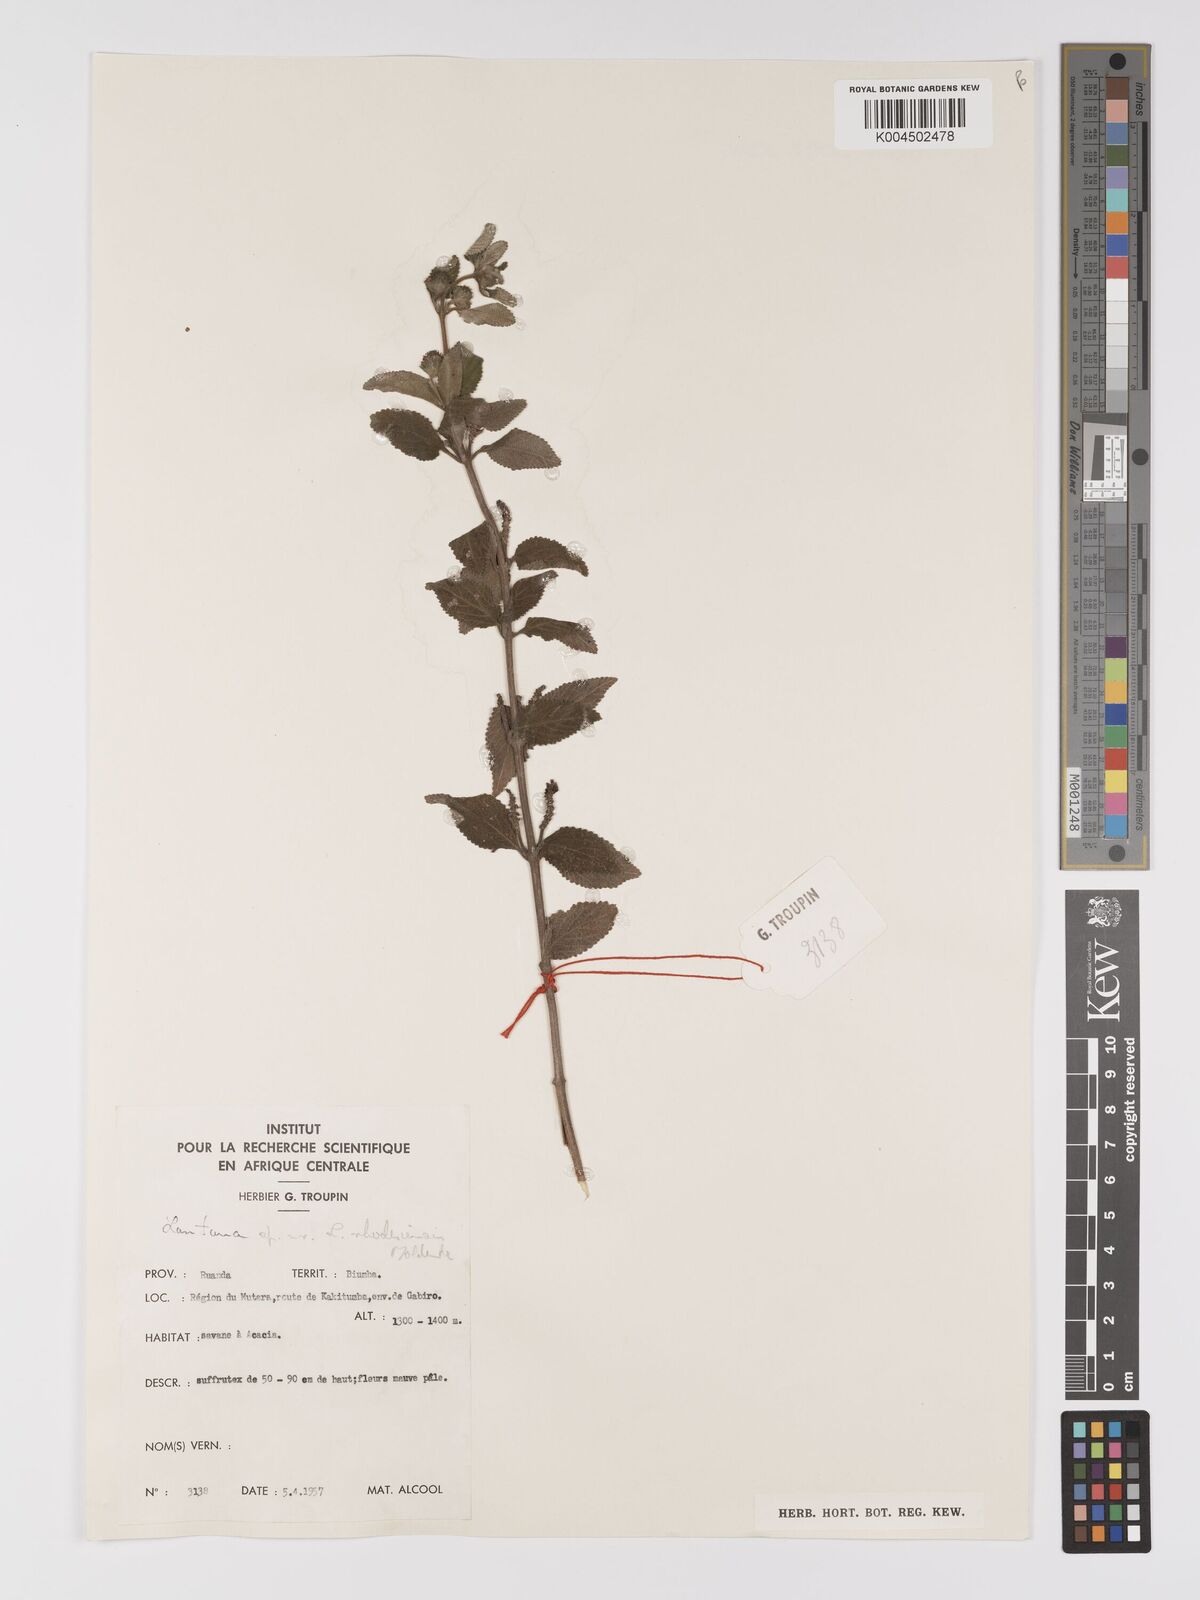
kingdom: Plantae
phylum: Tracheophyta
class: Magnoliopsida
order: Lamiales
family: Verbenaceae
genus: Lantana
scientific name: Lantana ukambensis
